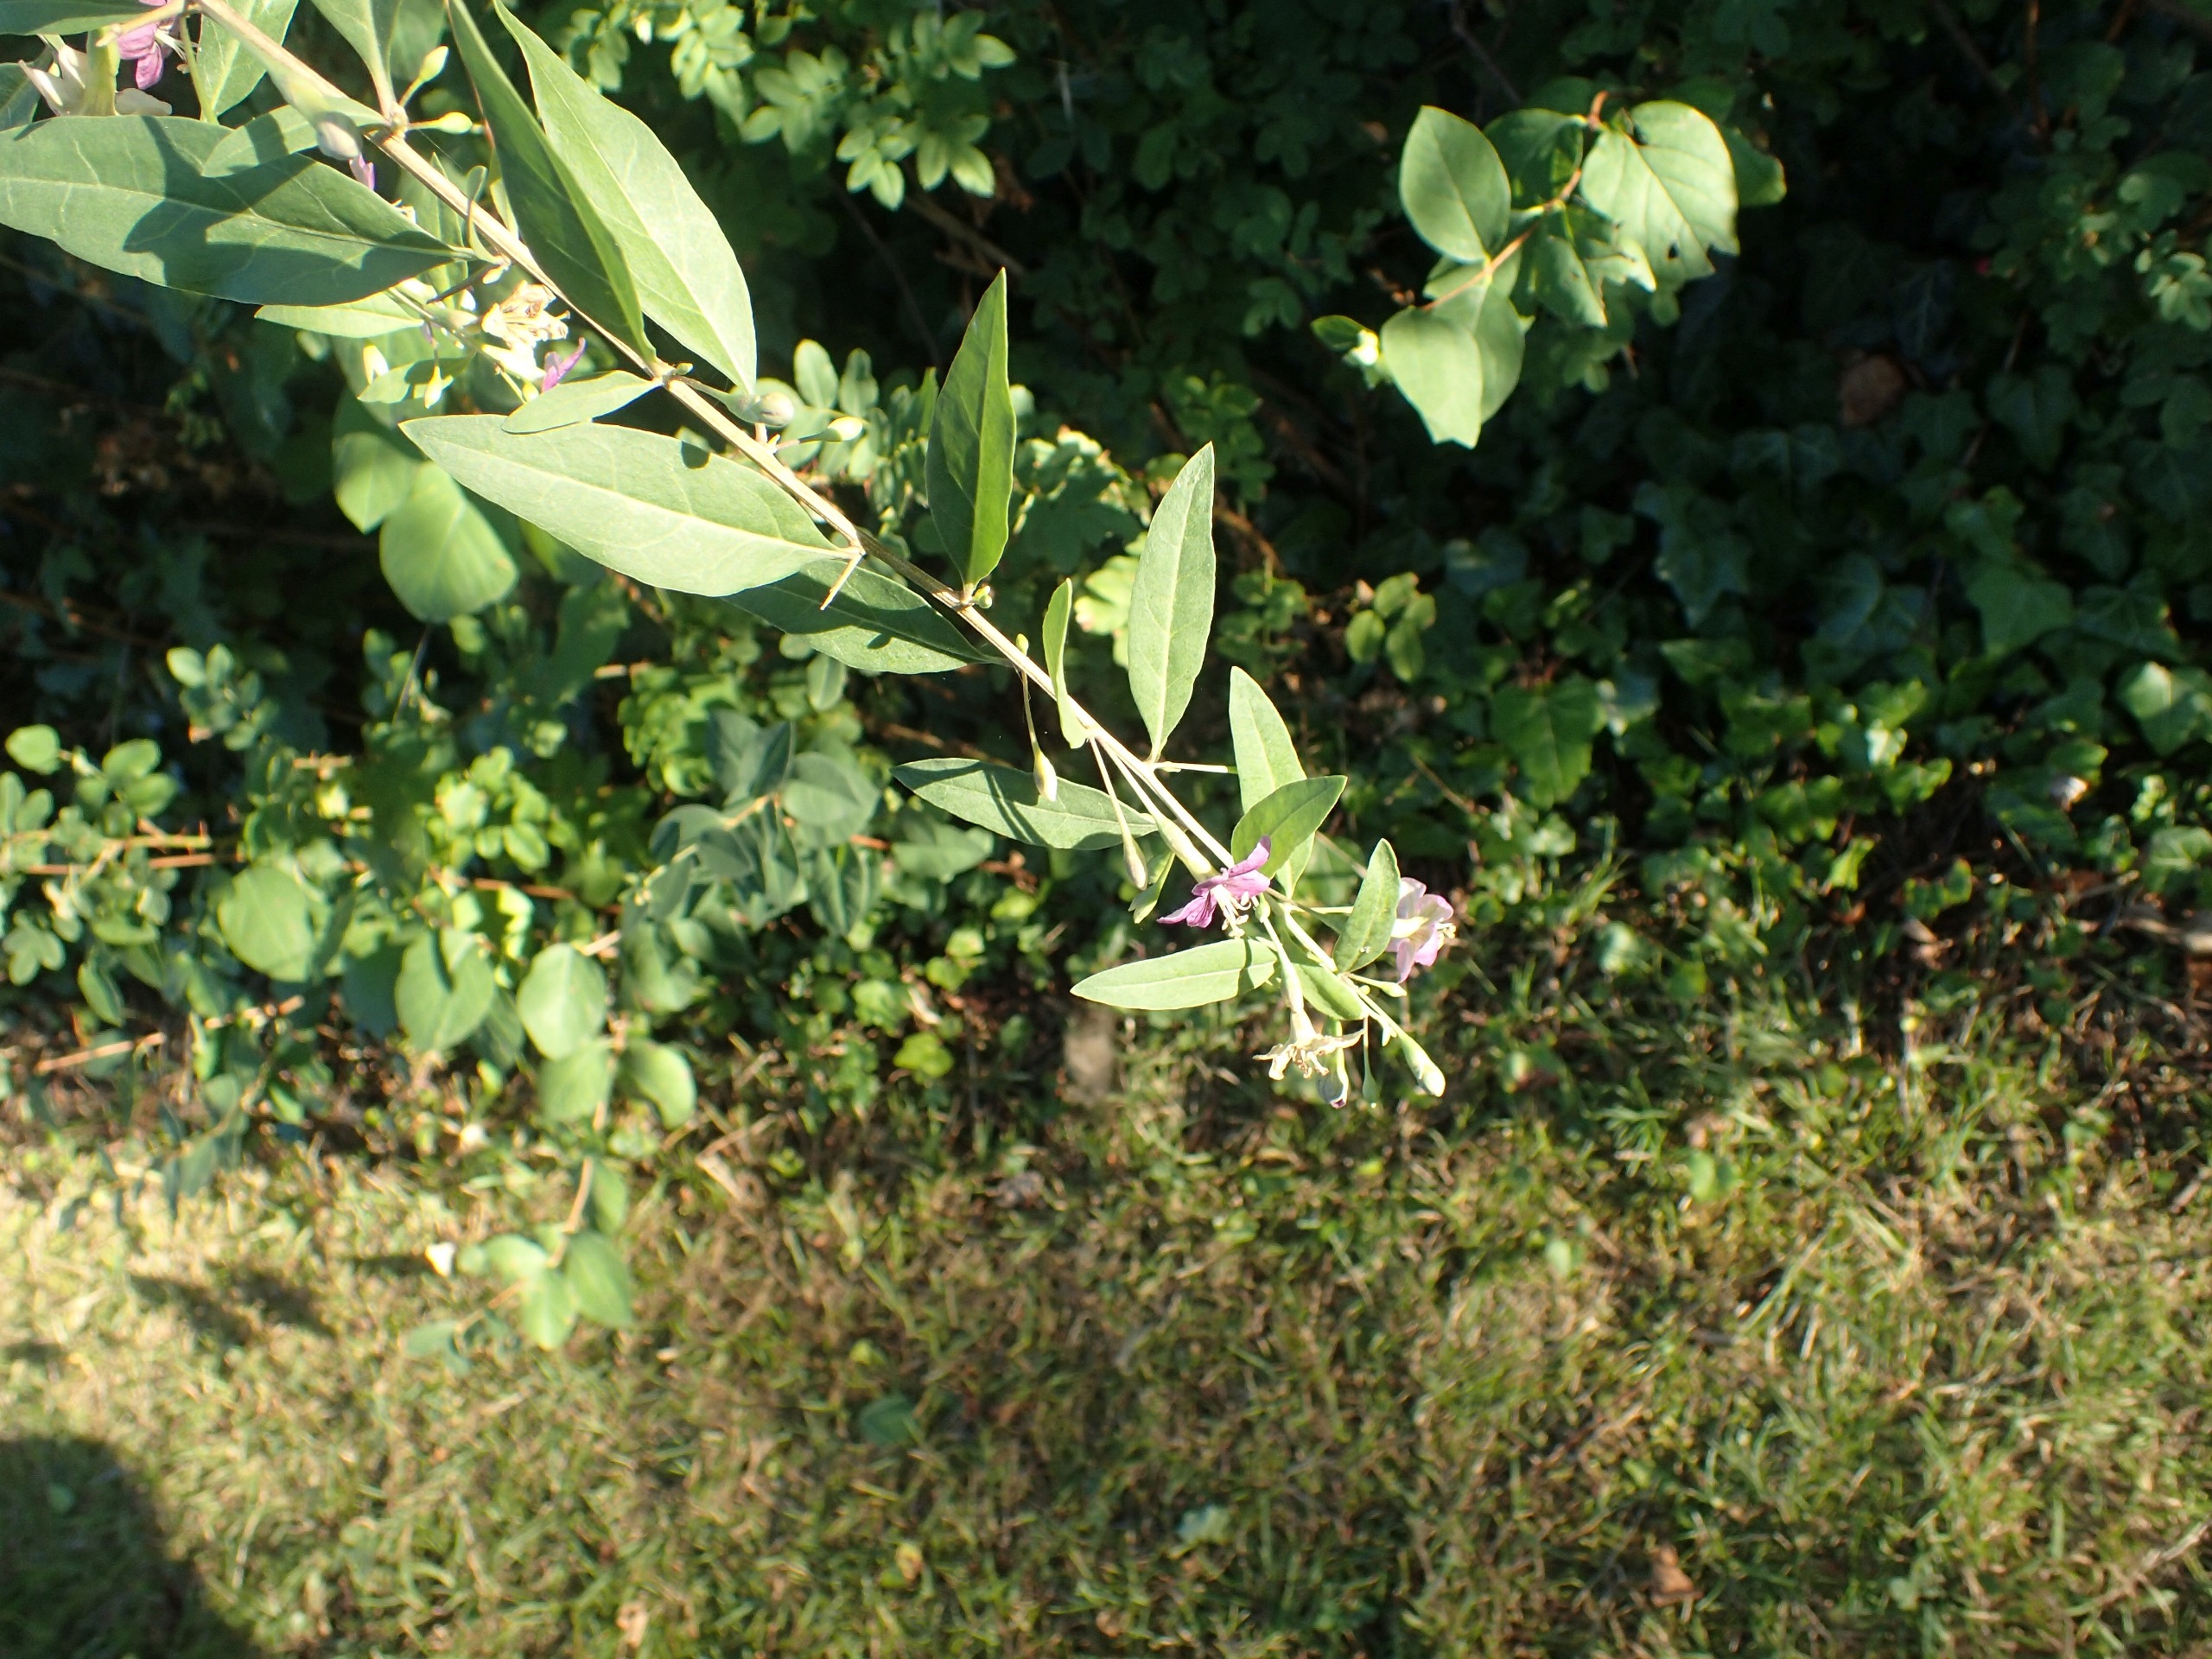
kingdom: Plantae
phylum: Tracheophyta
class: Magnoliopsida
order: Solanales
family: Solanaceae
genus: Lycium
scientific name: Lycium barbarum
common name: Bukketorn
